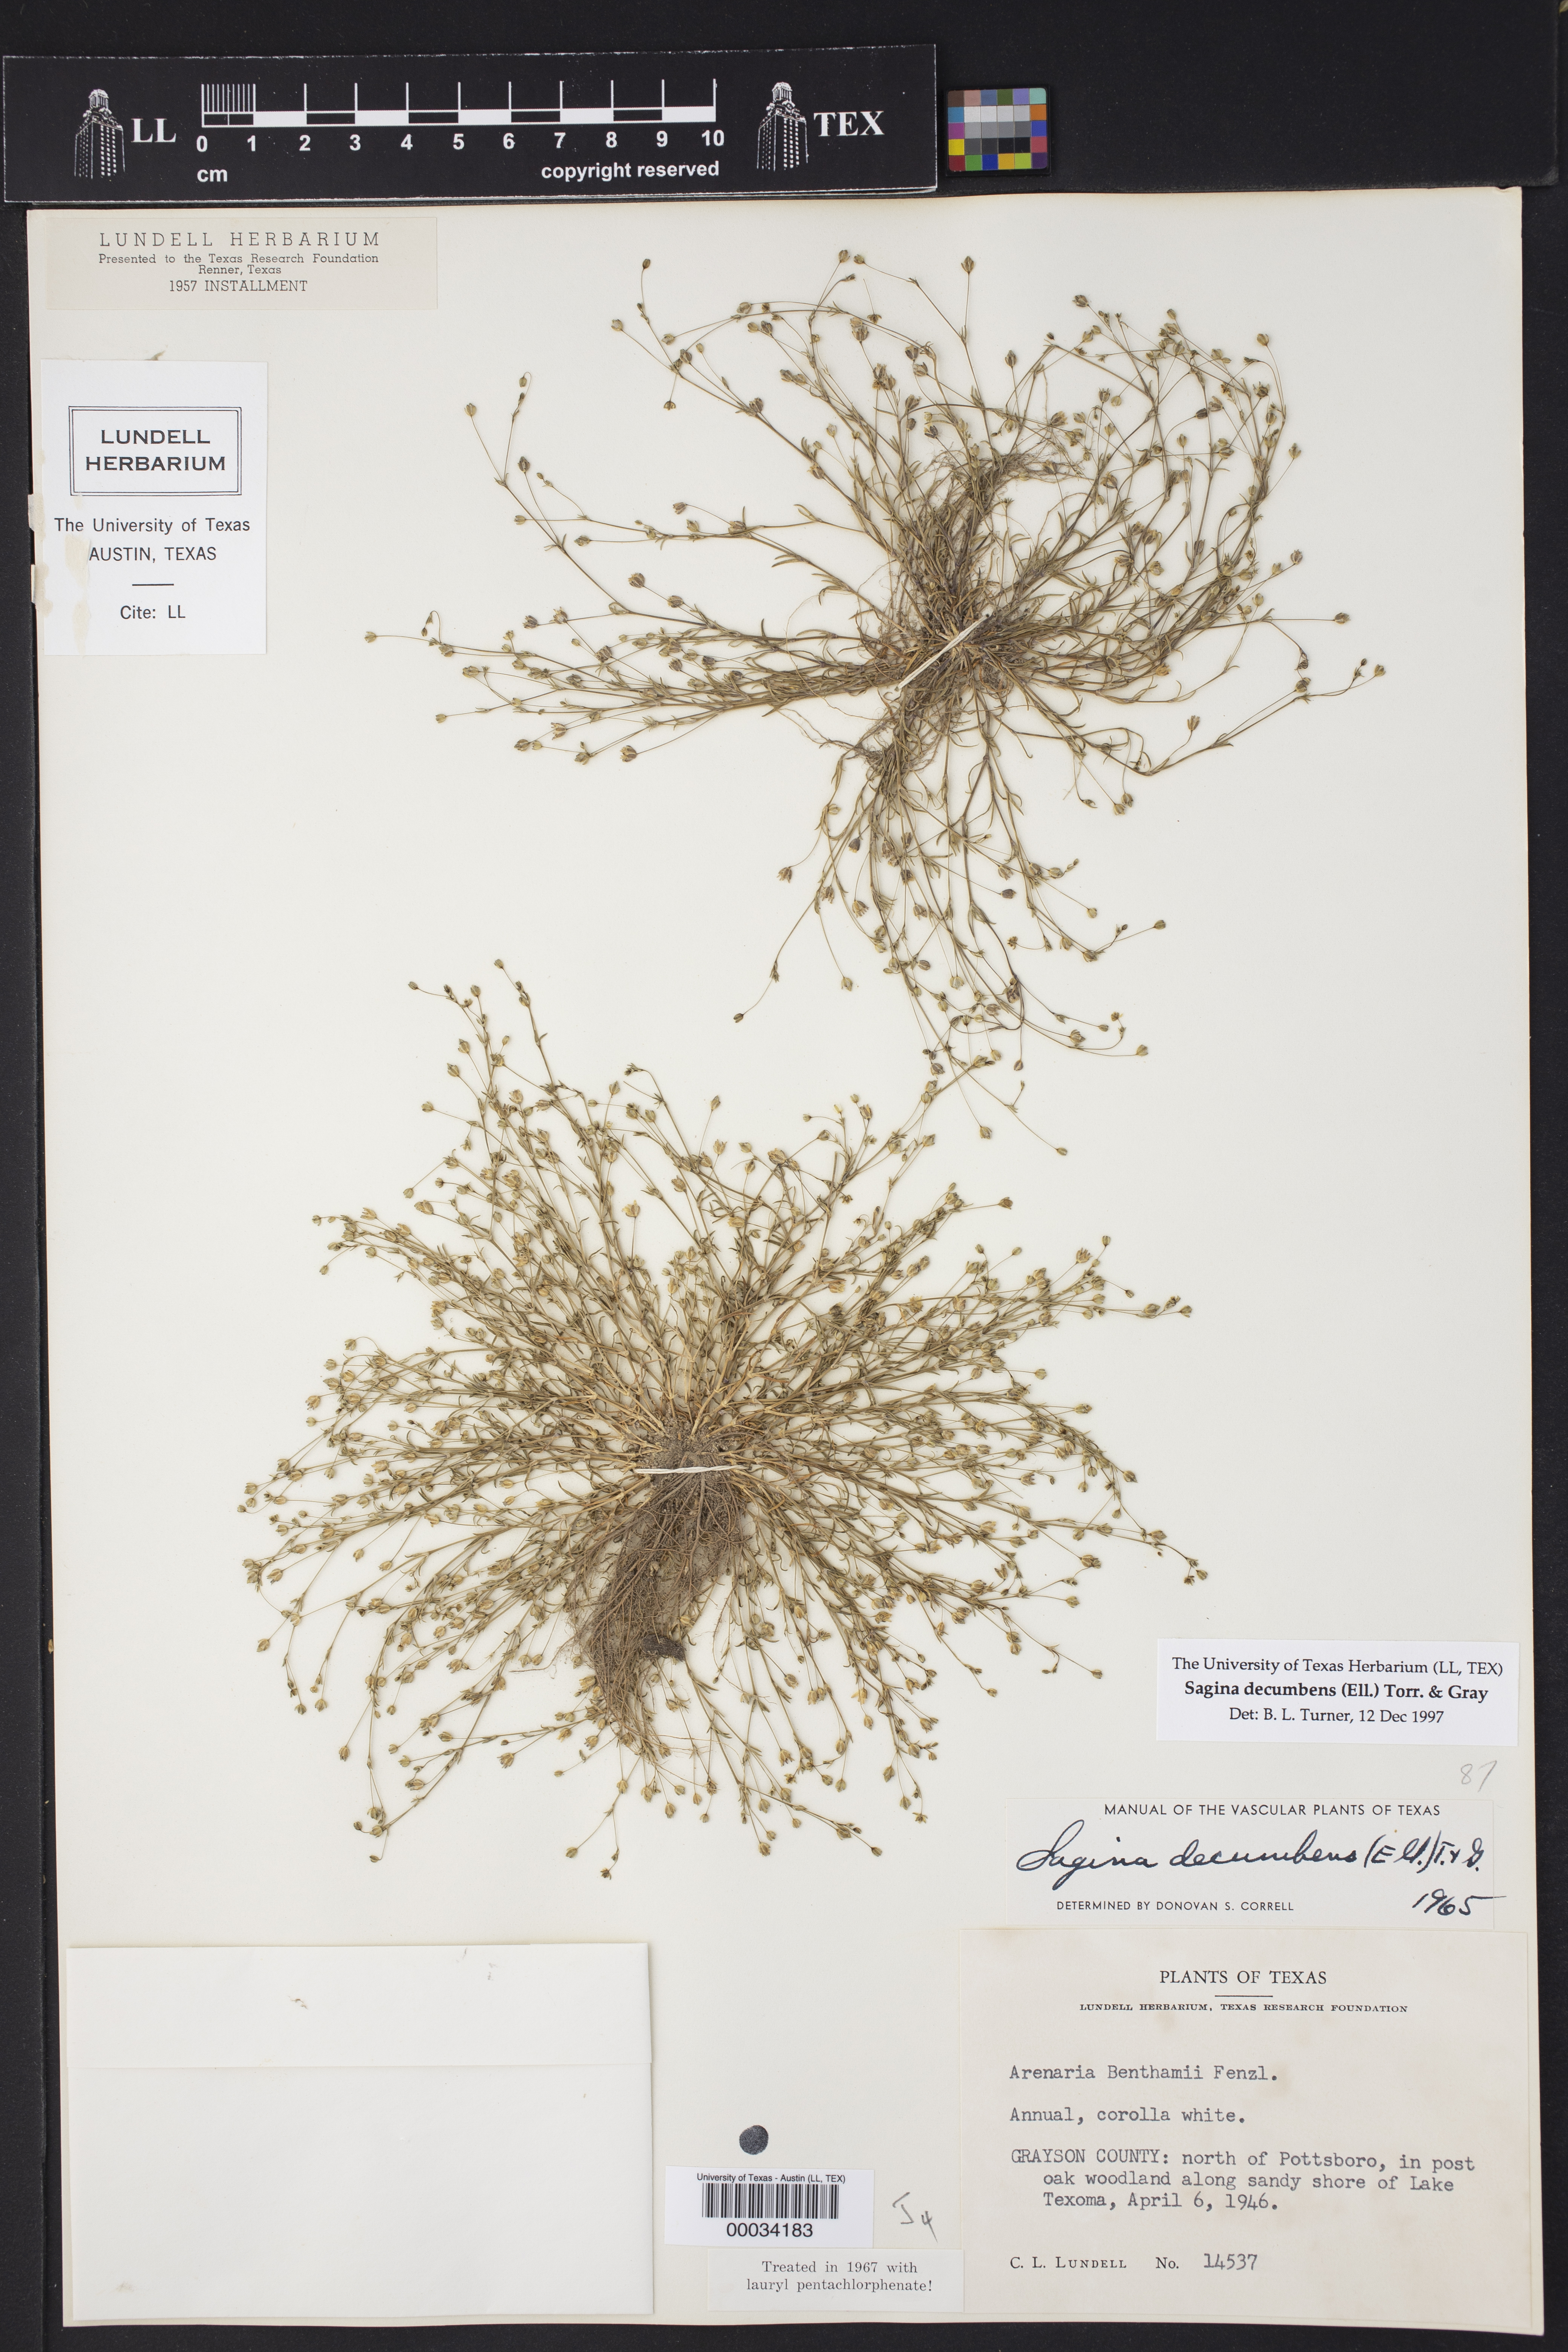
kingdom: Plantae
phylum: Tracheophyta
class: Magnoliopsida
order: Caryophyllales
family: Caryophyllaceae
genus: Sagina
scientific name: Sagina decumbens
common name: Decumbent pearlwort
